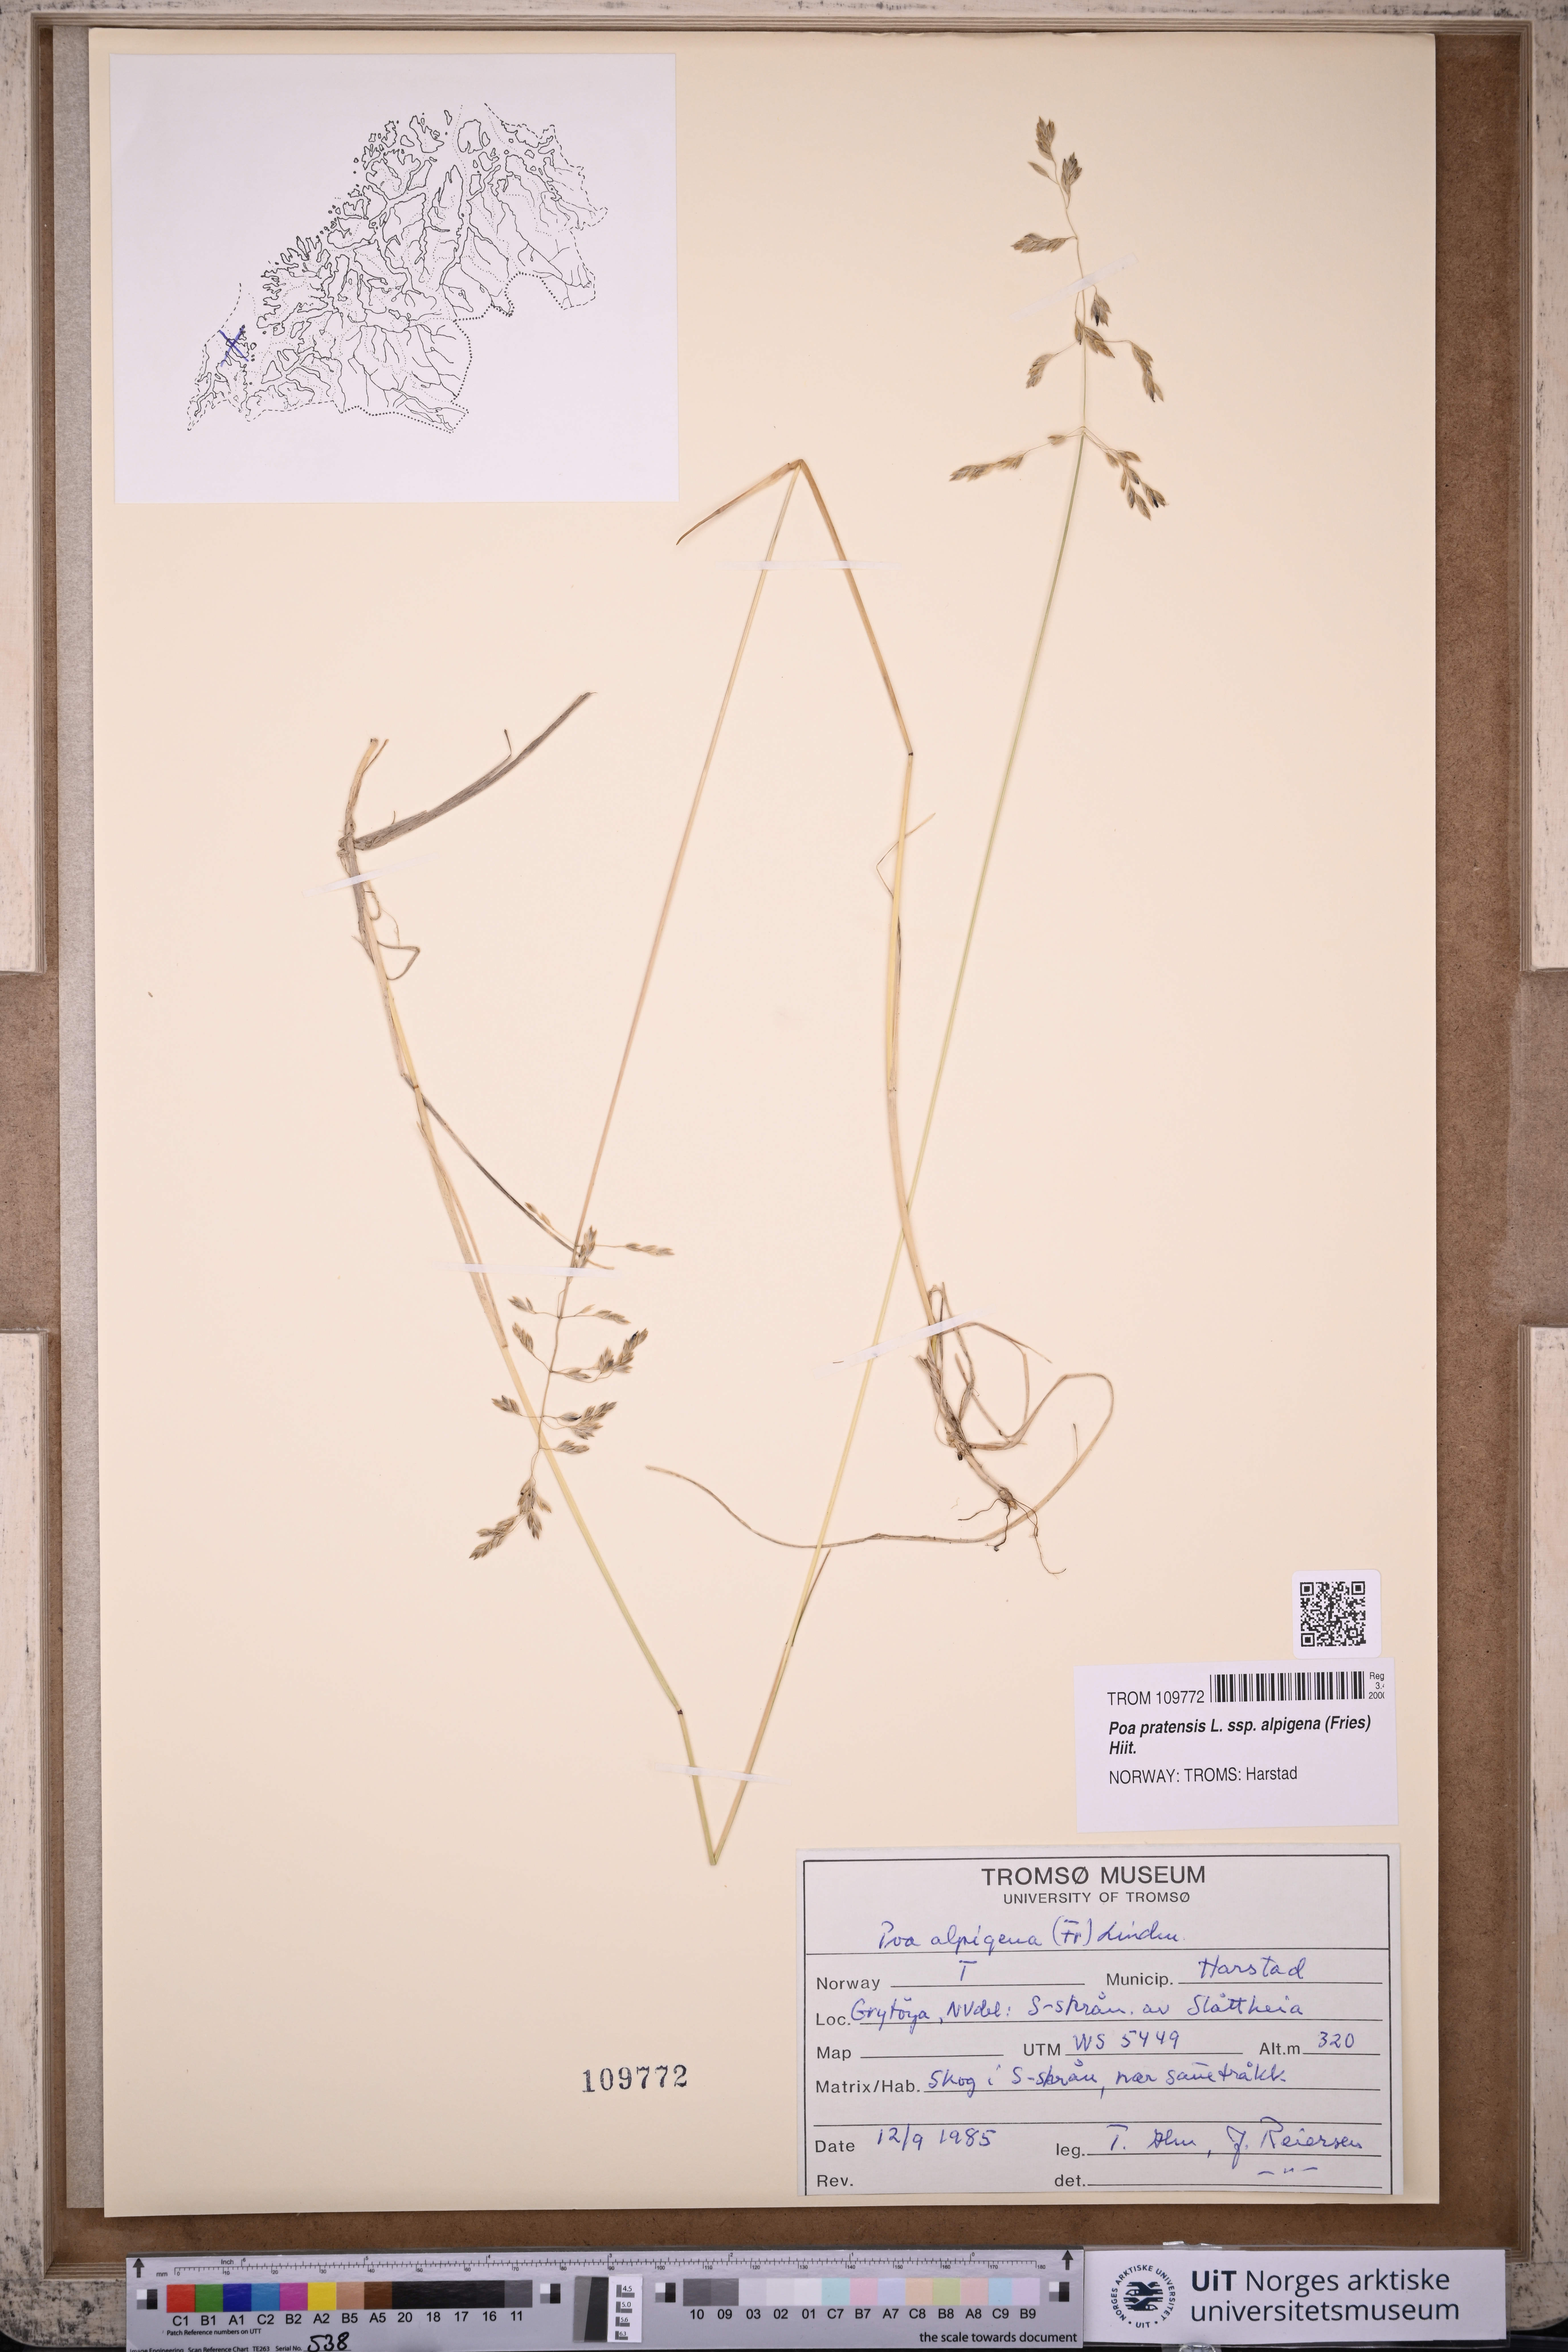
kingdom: Plantae
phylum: Tracheophyta
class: Liliopsida
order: Poales
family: Poaceae
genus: Poa
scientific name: Poa alpigena
